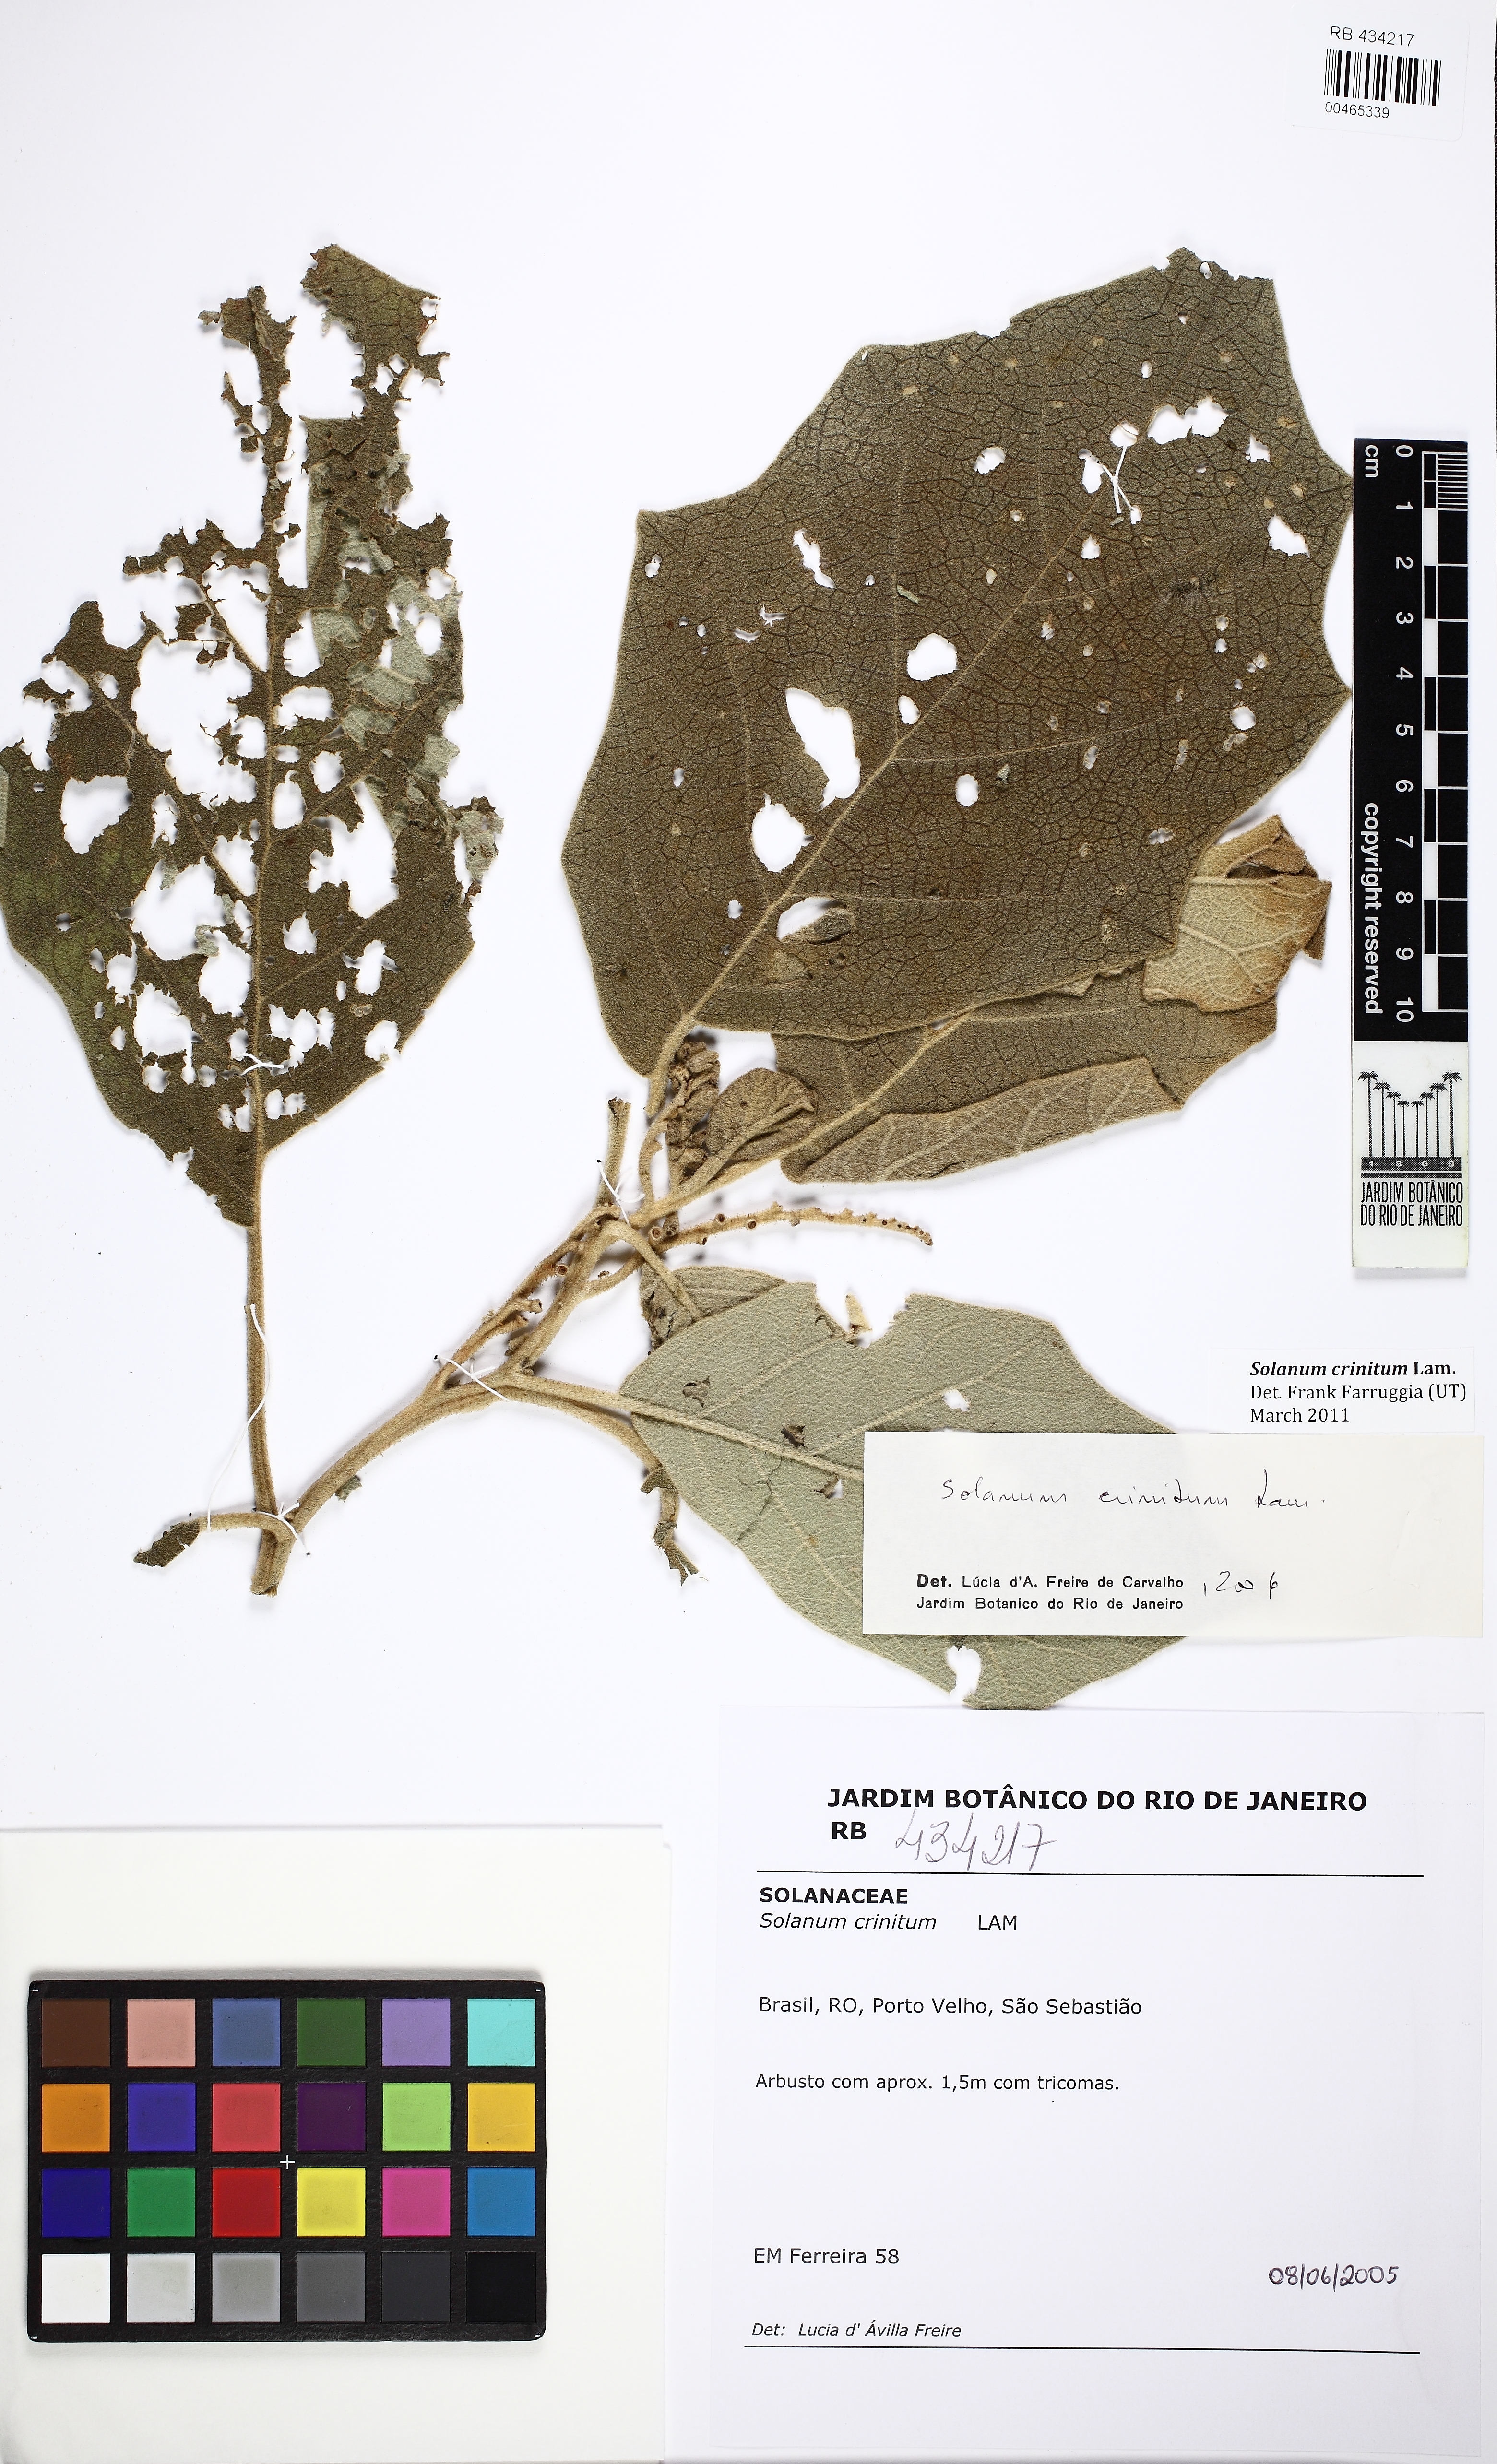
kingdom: Plantae
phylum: Tracheophyta
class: Magnoliopsida
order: Solanales
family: Solanaceae
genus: Solanum
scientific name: Solanum crinitum
